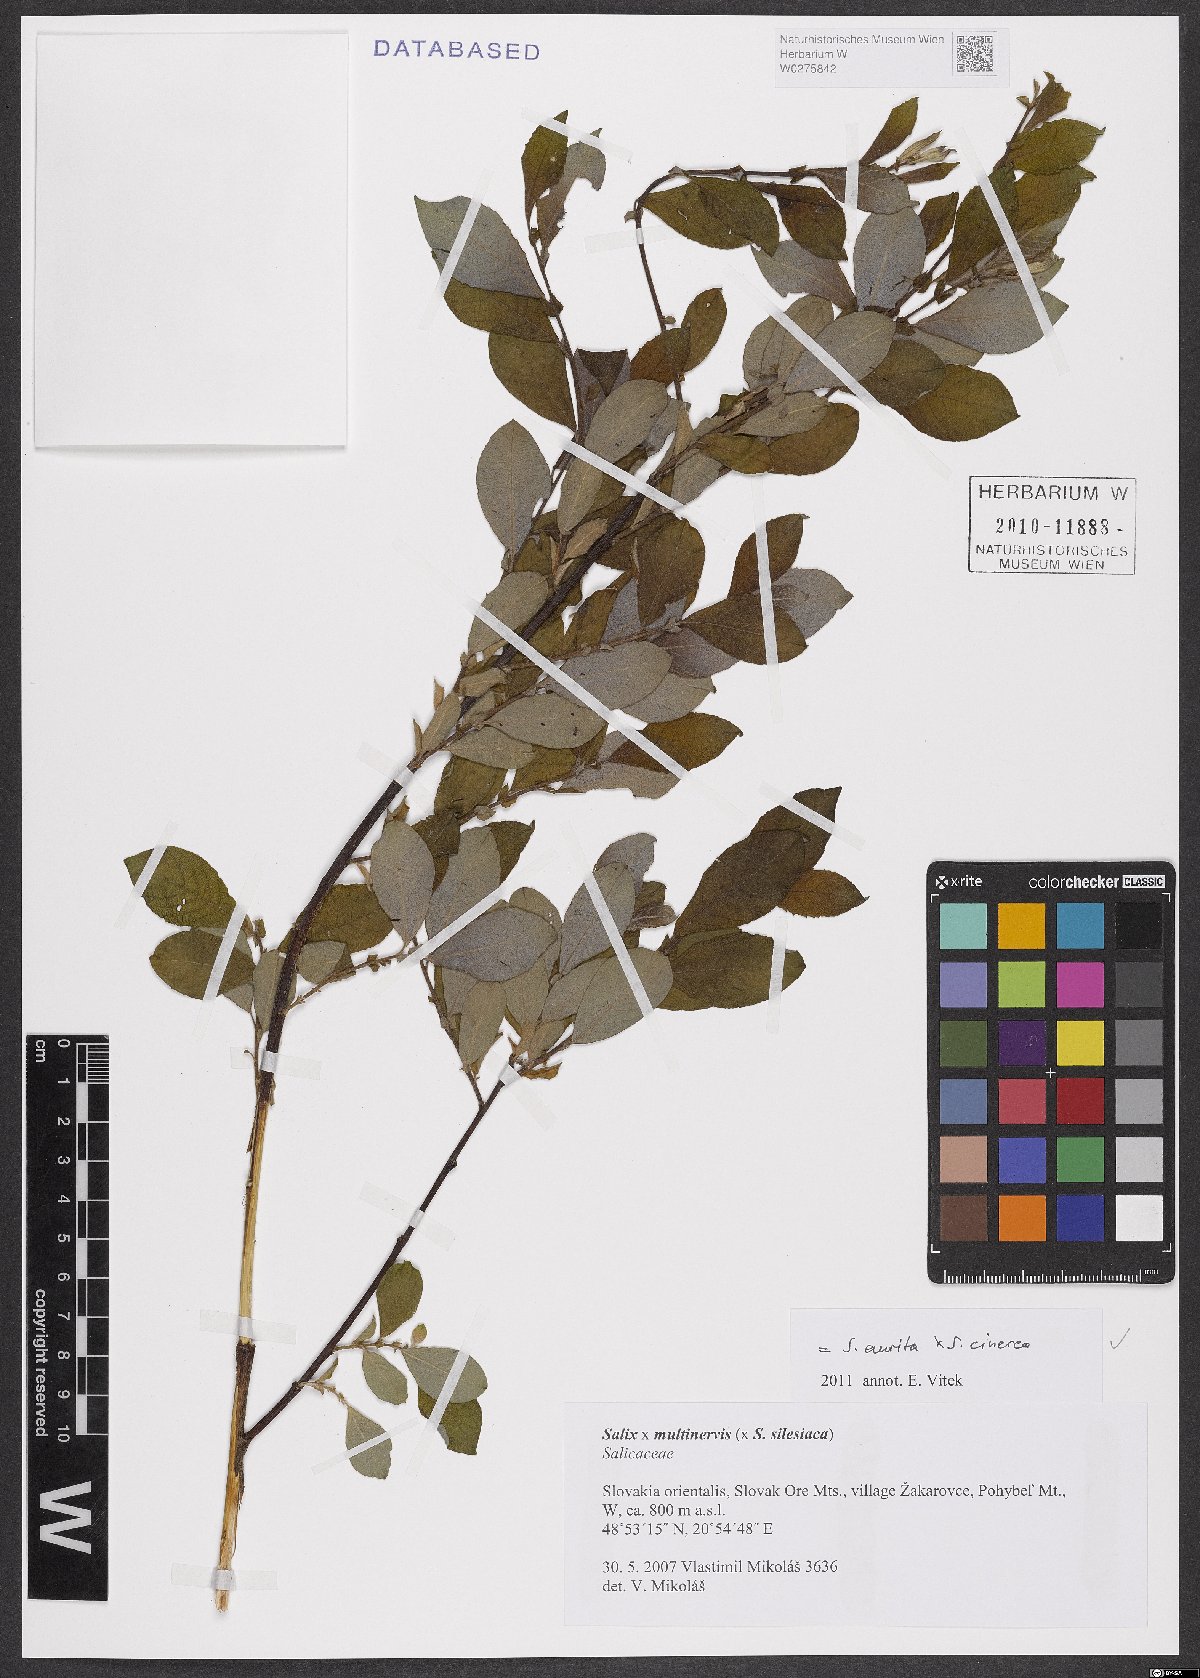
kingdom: Plantae
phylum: Tracheophyta
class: Magnoliopsida
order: Malpighiales
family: Salicaceae
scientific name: Salicaceae
